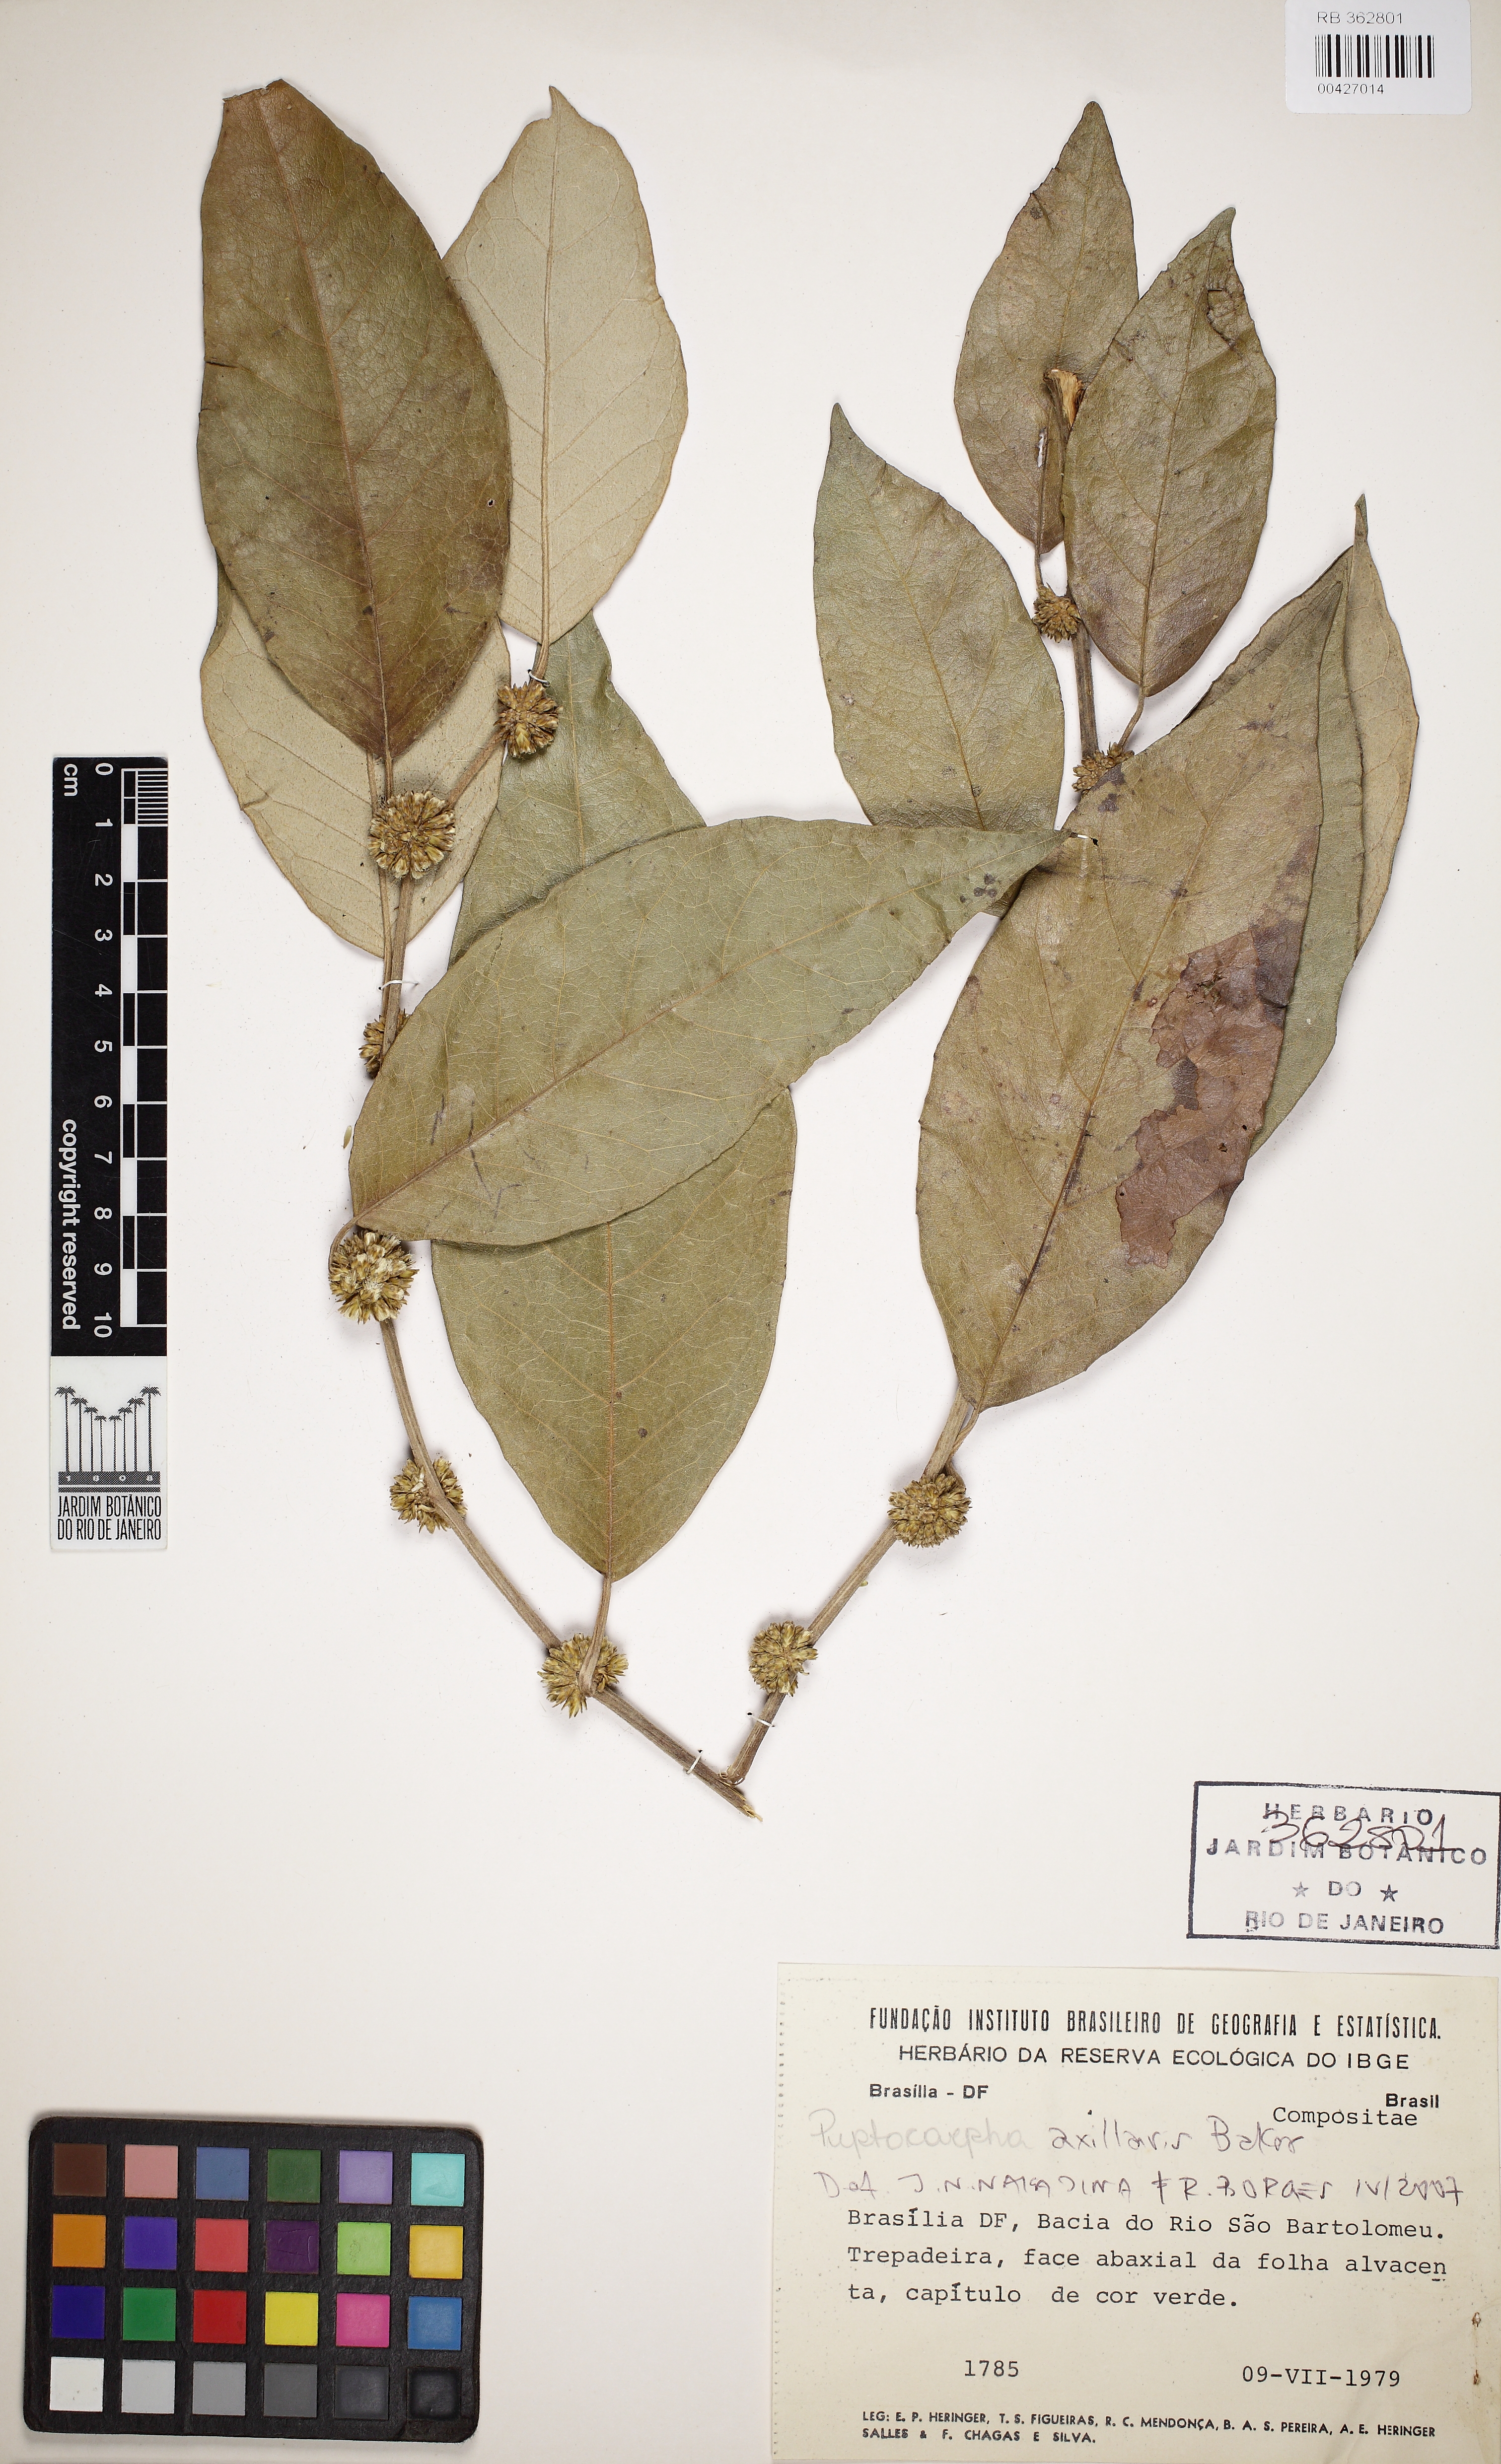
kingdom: Plantae
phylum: Tracheophyta
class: Magnoliopsida
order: Asterales
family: Asteraceae
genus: Piptocarpha
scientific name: Piptocarpha oblonga
